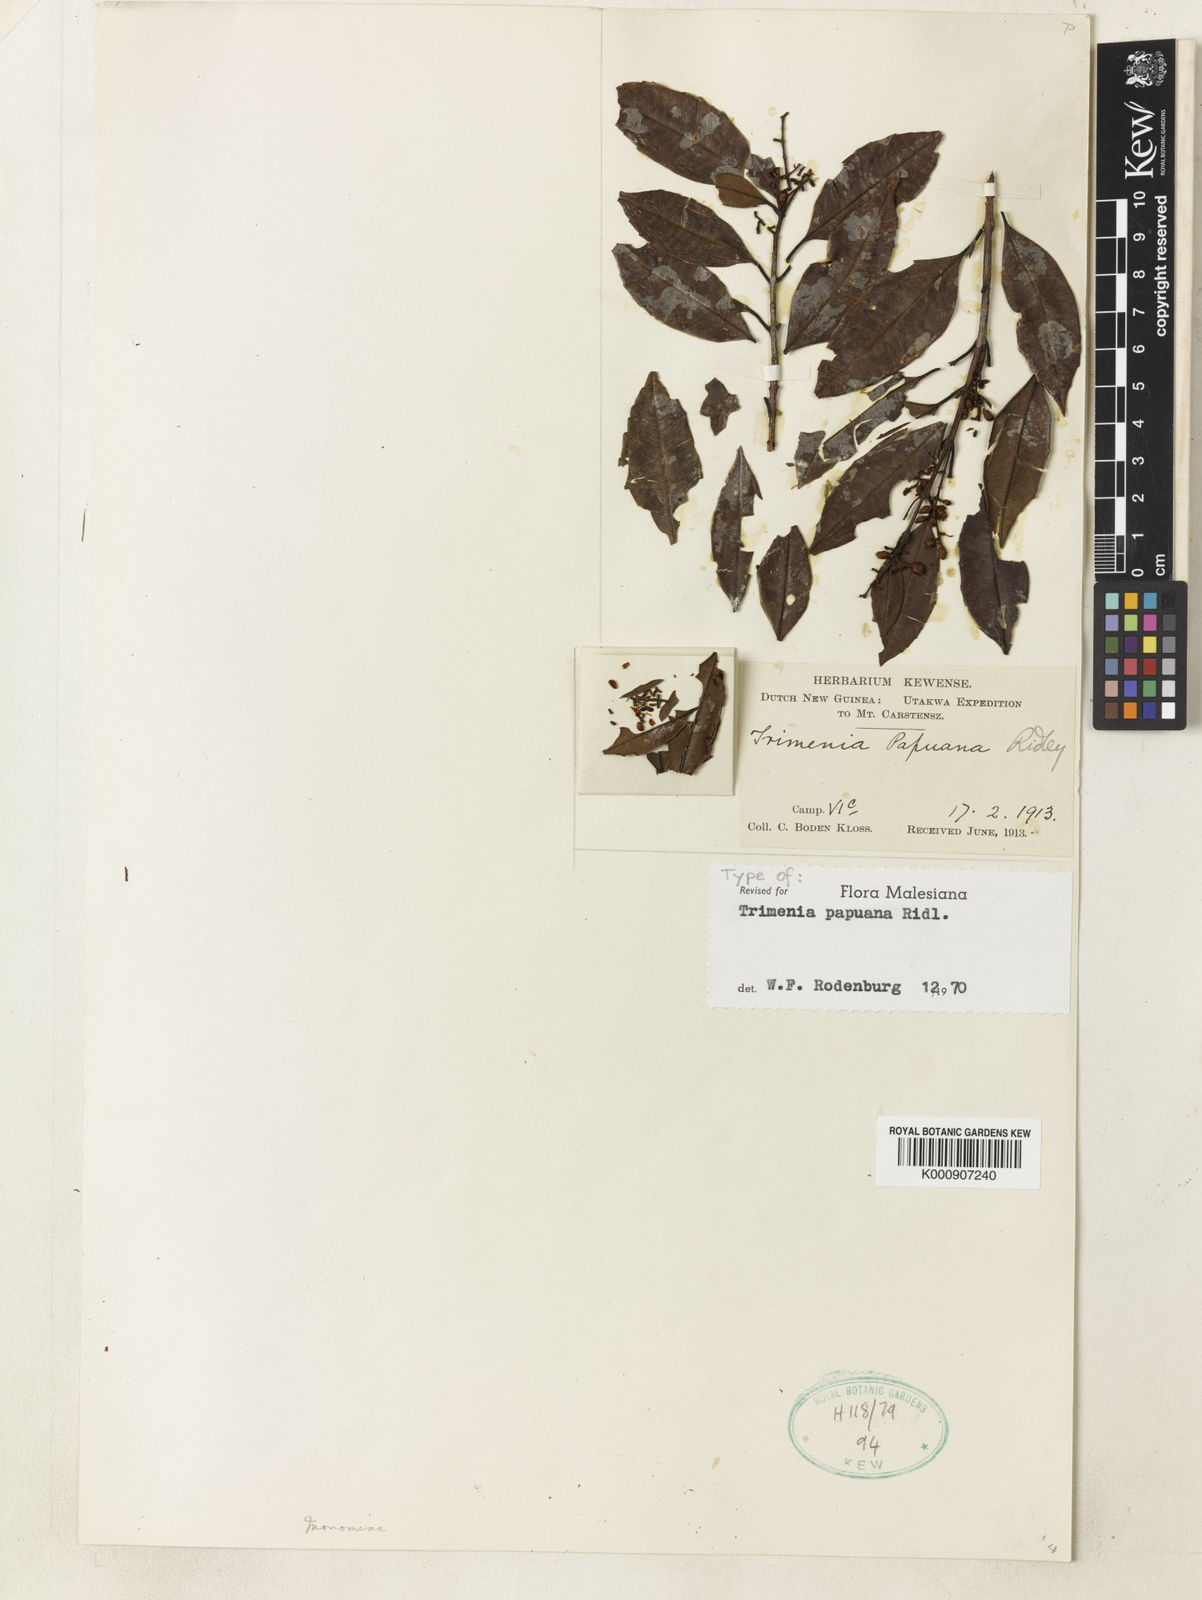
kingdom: Plantae
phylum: Tracheophyta
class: Magnoliopsida
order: Austrobaileyales
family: Trimeniaceae
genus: Trimenia
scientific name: Trimenia papuana
